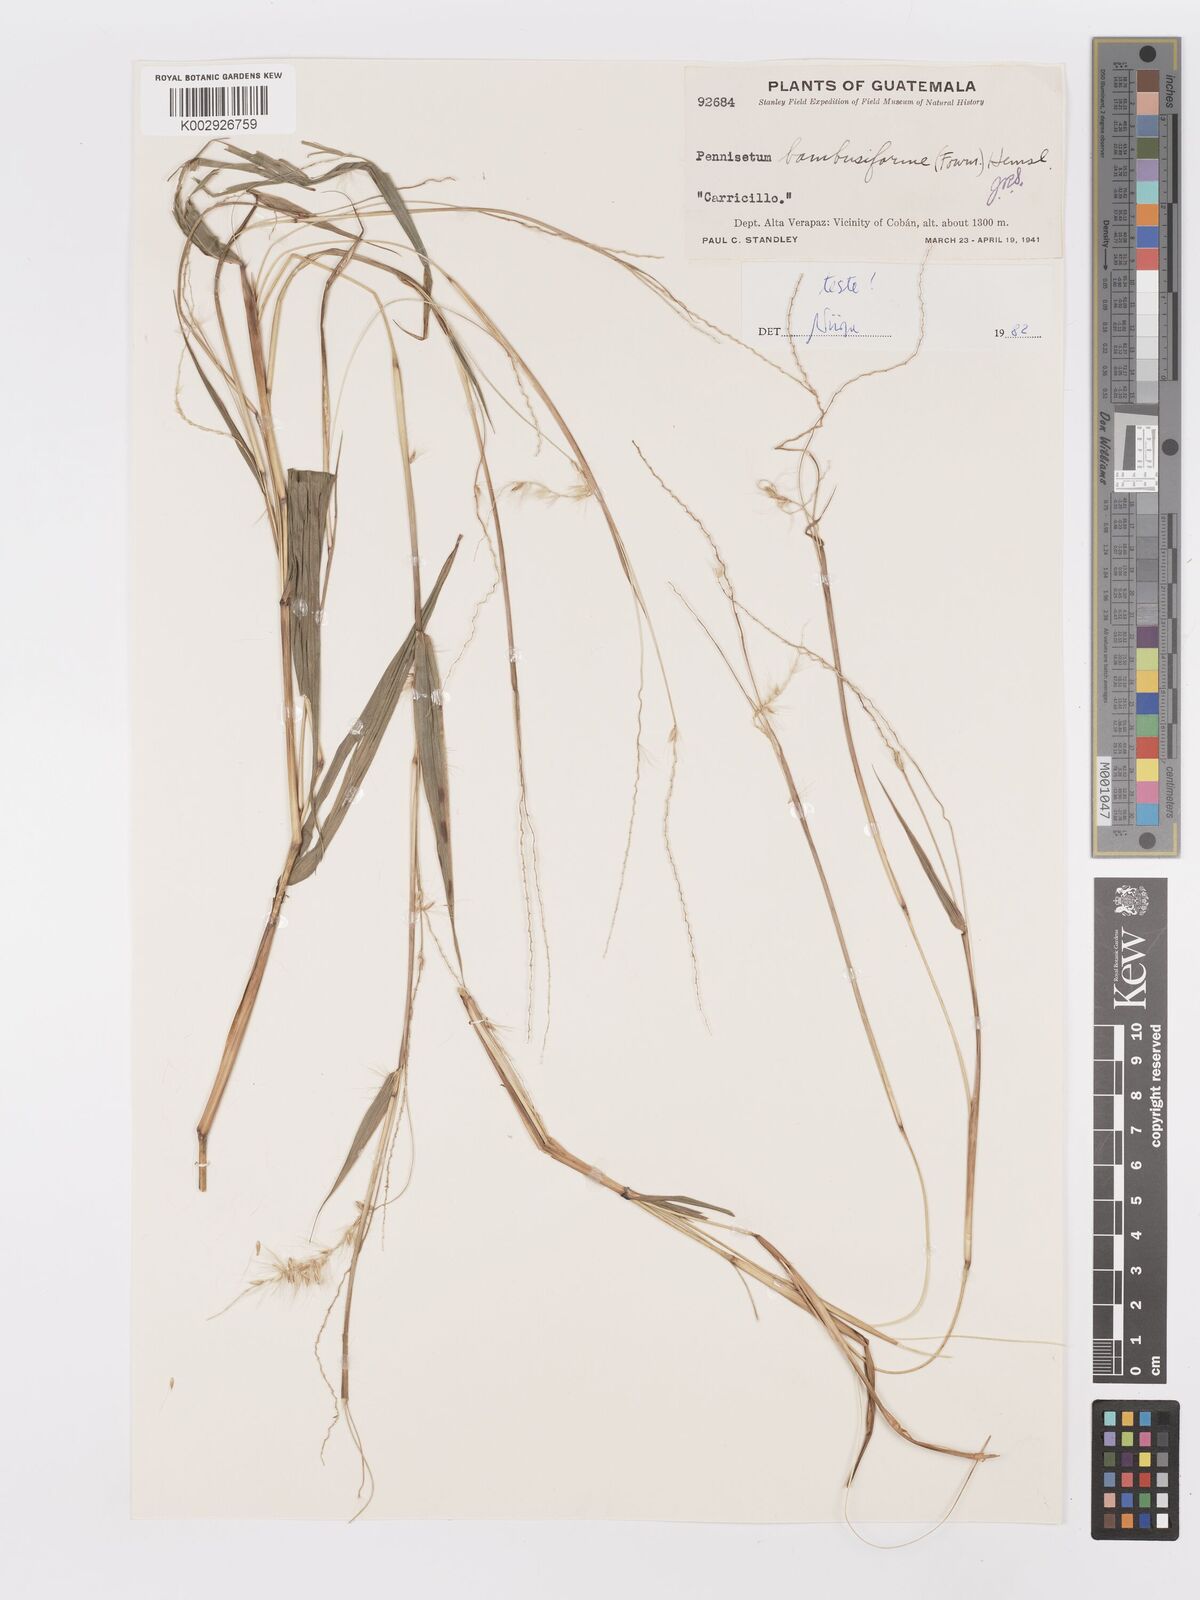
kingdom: Plantae
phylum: Tracheophyta
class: Liliopsida
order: Poales
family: Poaceae
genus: Cenchrus
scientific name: Cenchrus preslii
